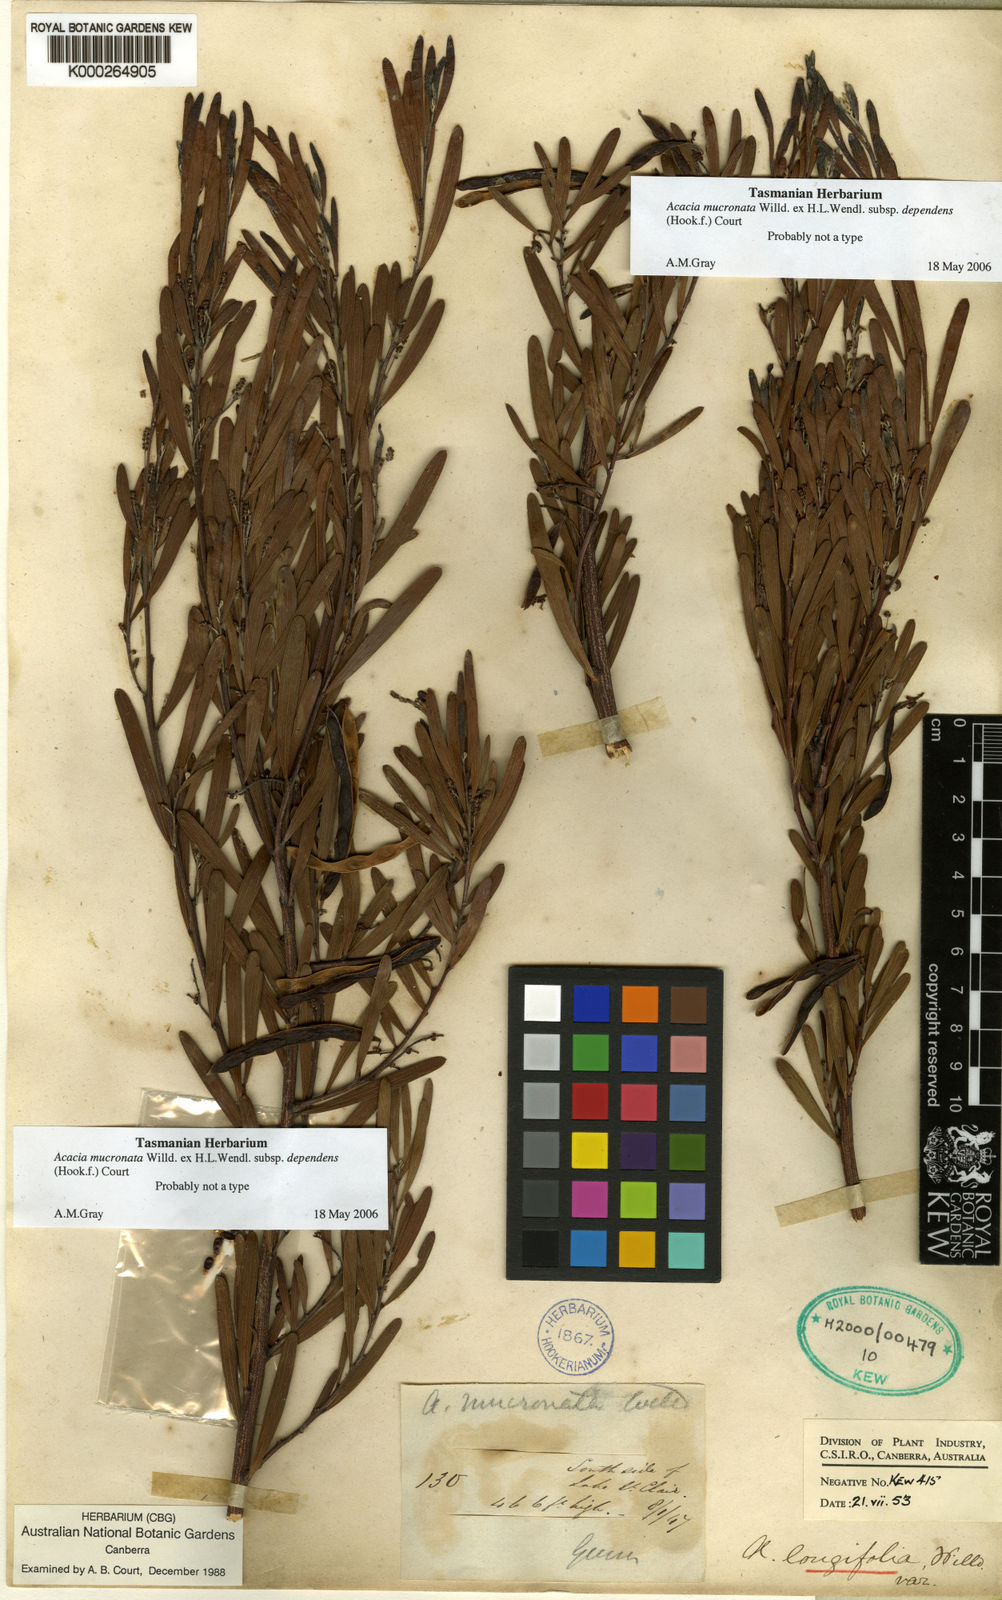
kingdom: Plantae
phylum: Tracheophyta
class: Magnoliopsida
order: Fabales
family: Fabaceae
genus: Acacia
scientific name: Acacia mucronata
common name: Variable sallow wattle
